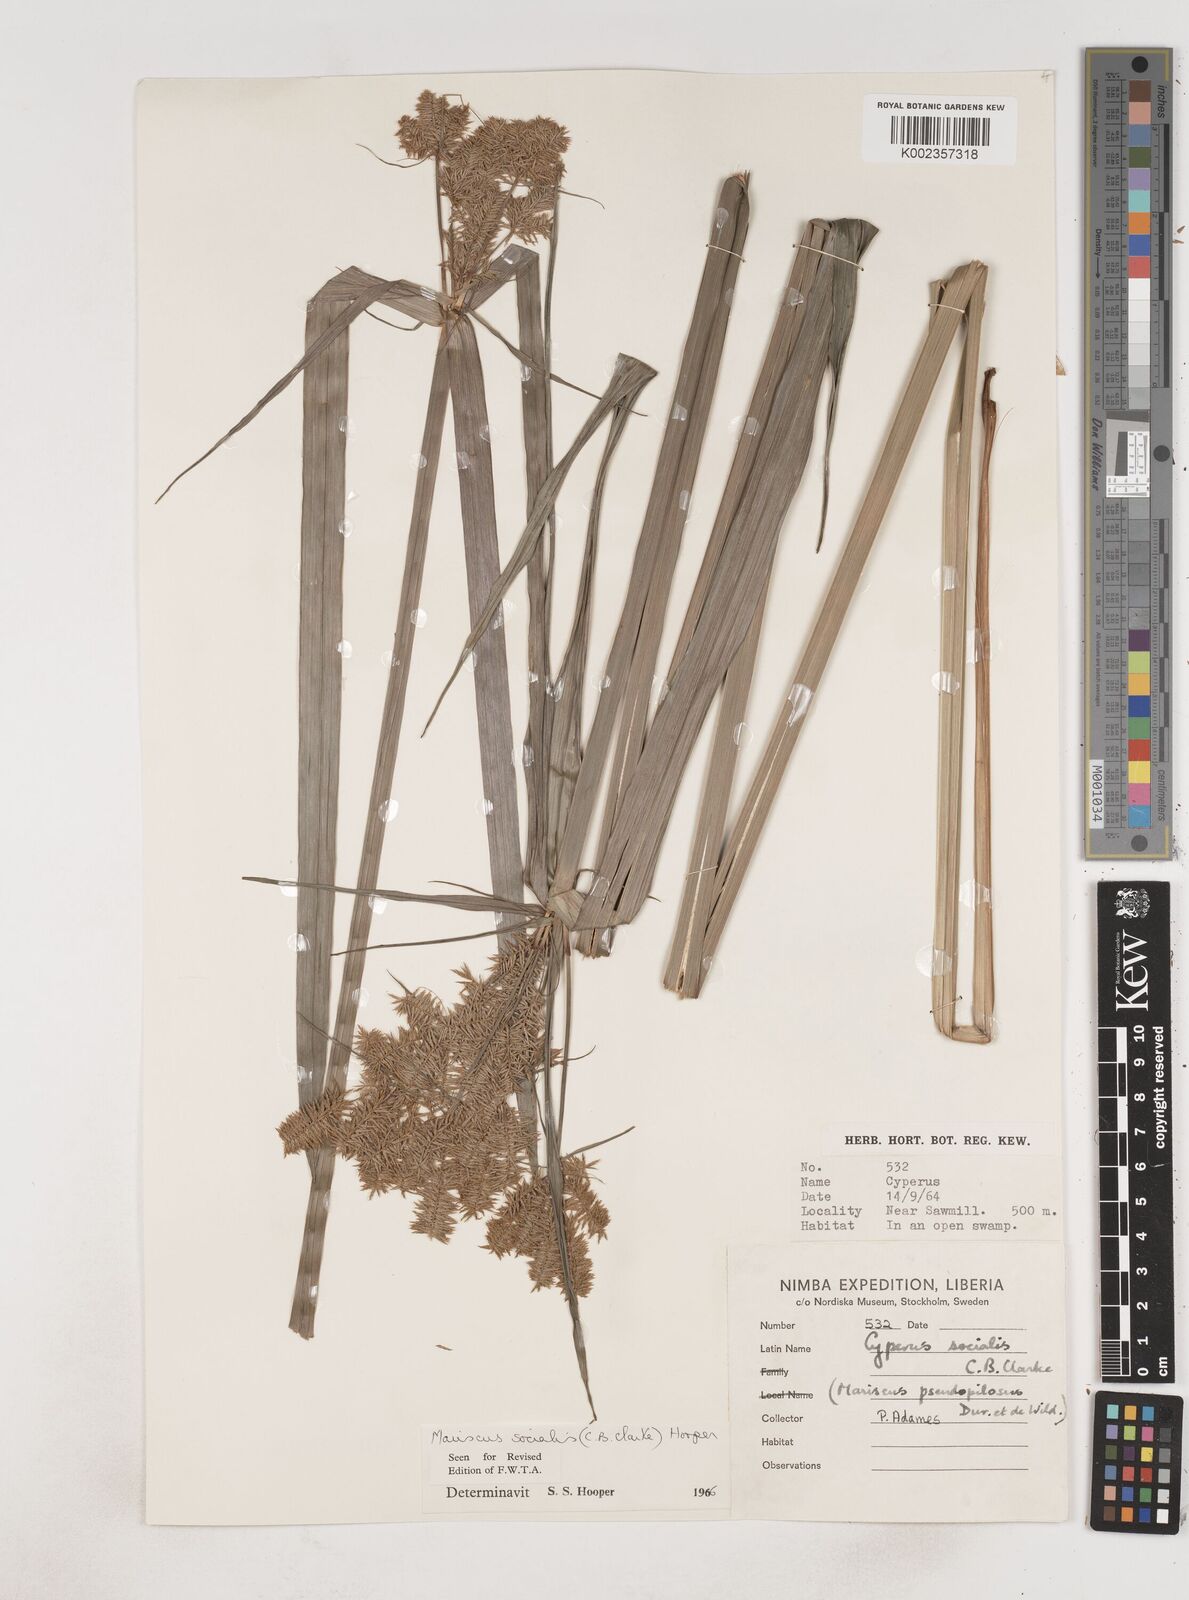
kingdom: Plantae
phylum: Tracheophyta
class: Liliopsida
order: Poales
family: Cyperaceae
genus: Cyperus
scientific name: Cyperus pseudopilosus
